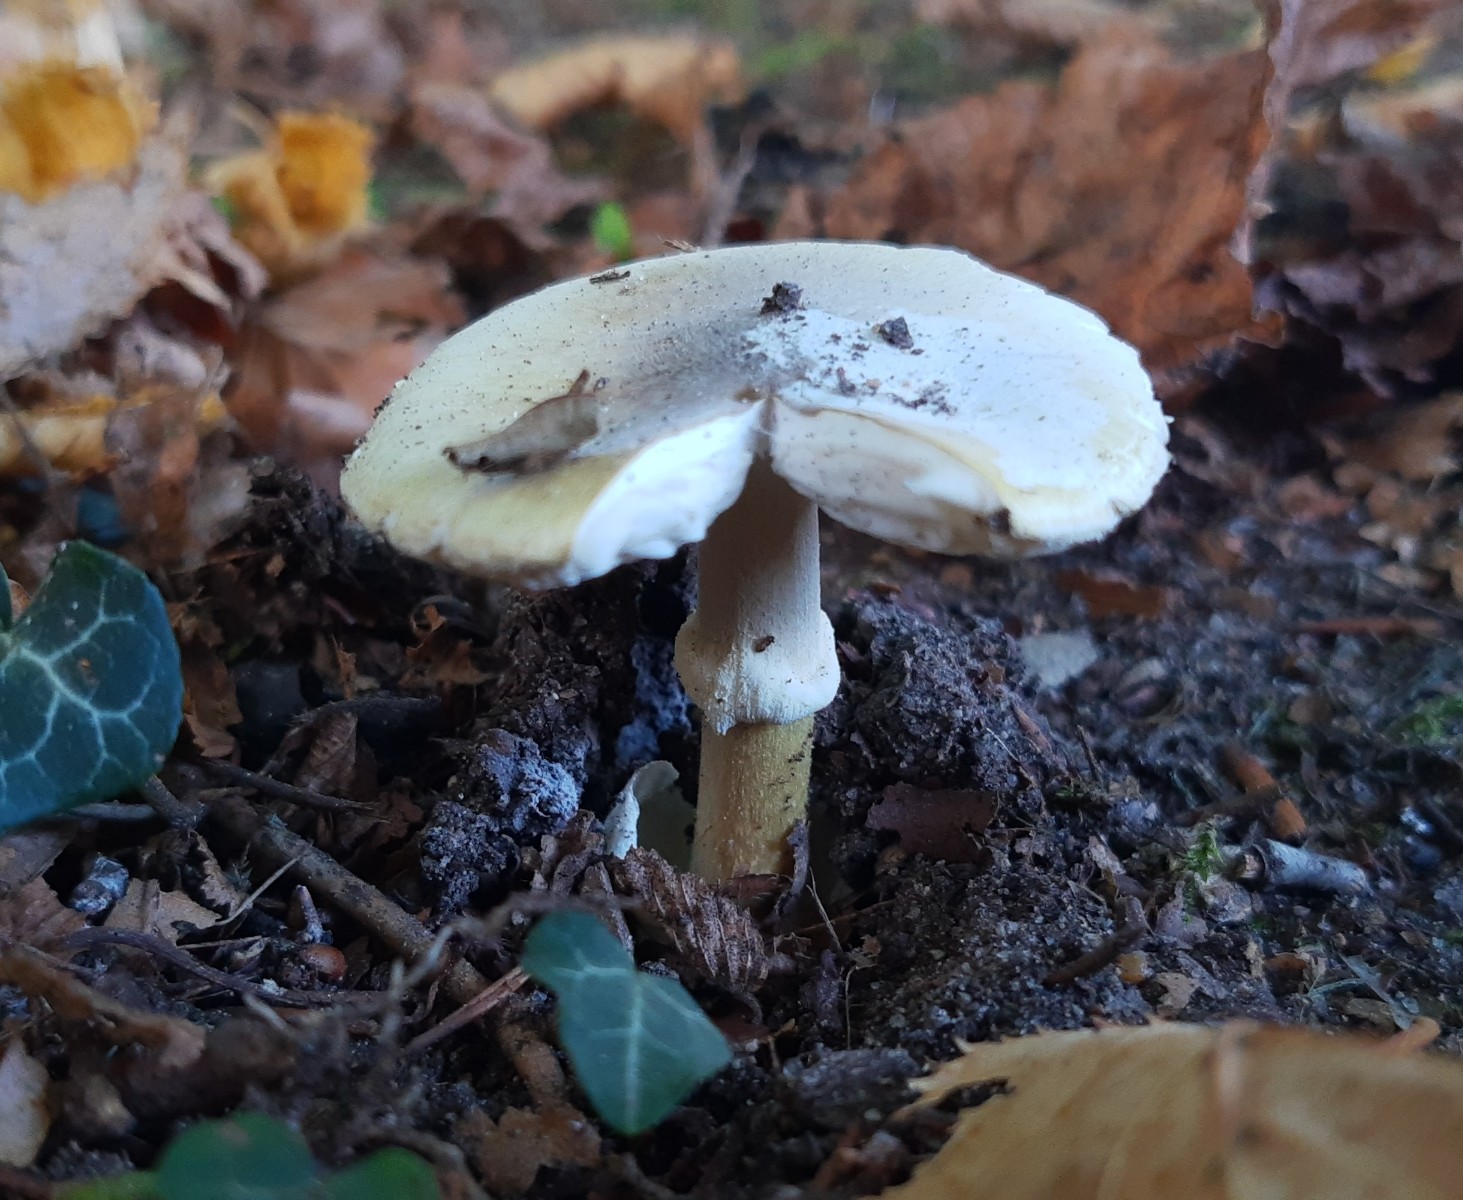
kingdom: Fungi
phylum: Basidiomycota
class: Agaricomycetes
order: Agaricales
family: Amanitaceae
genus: Amanita
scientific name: Amanita phalloides
